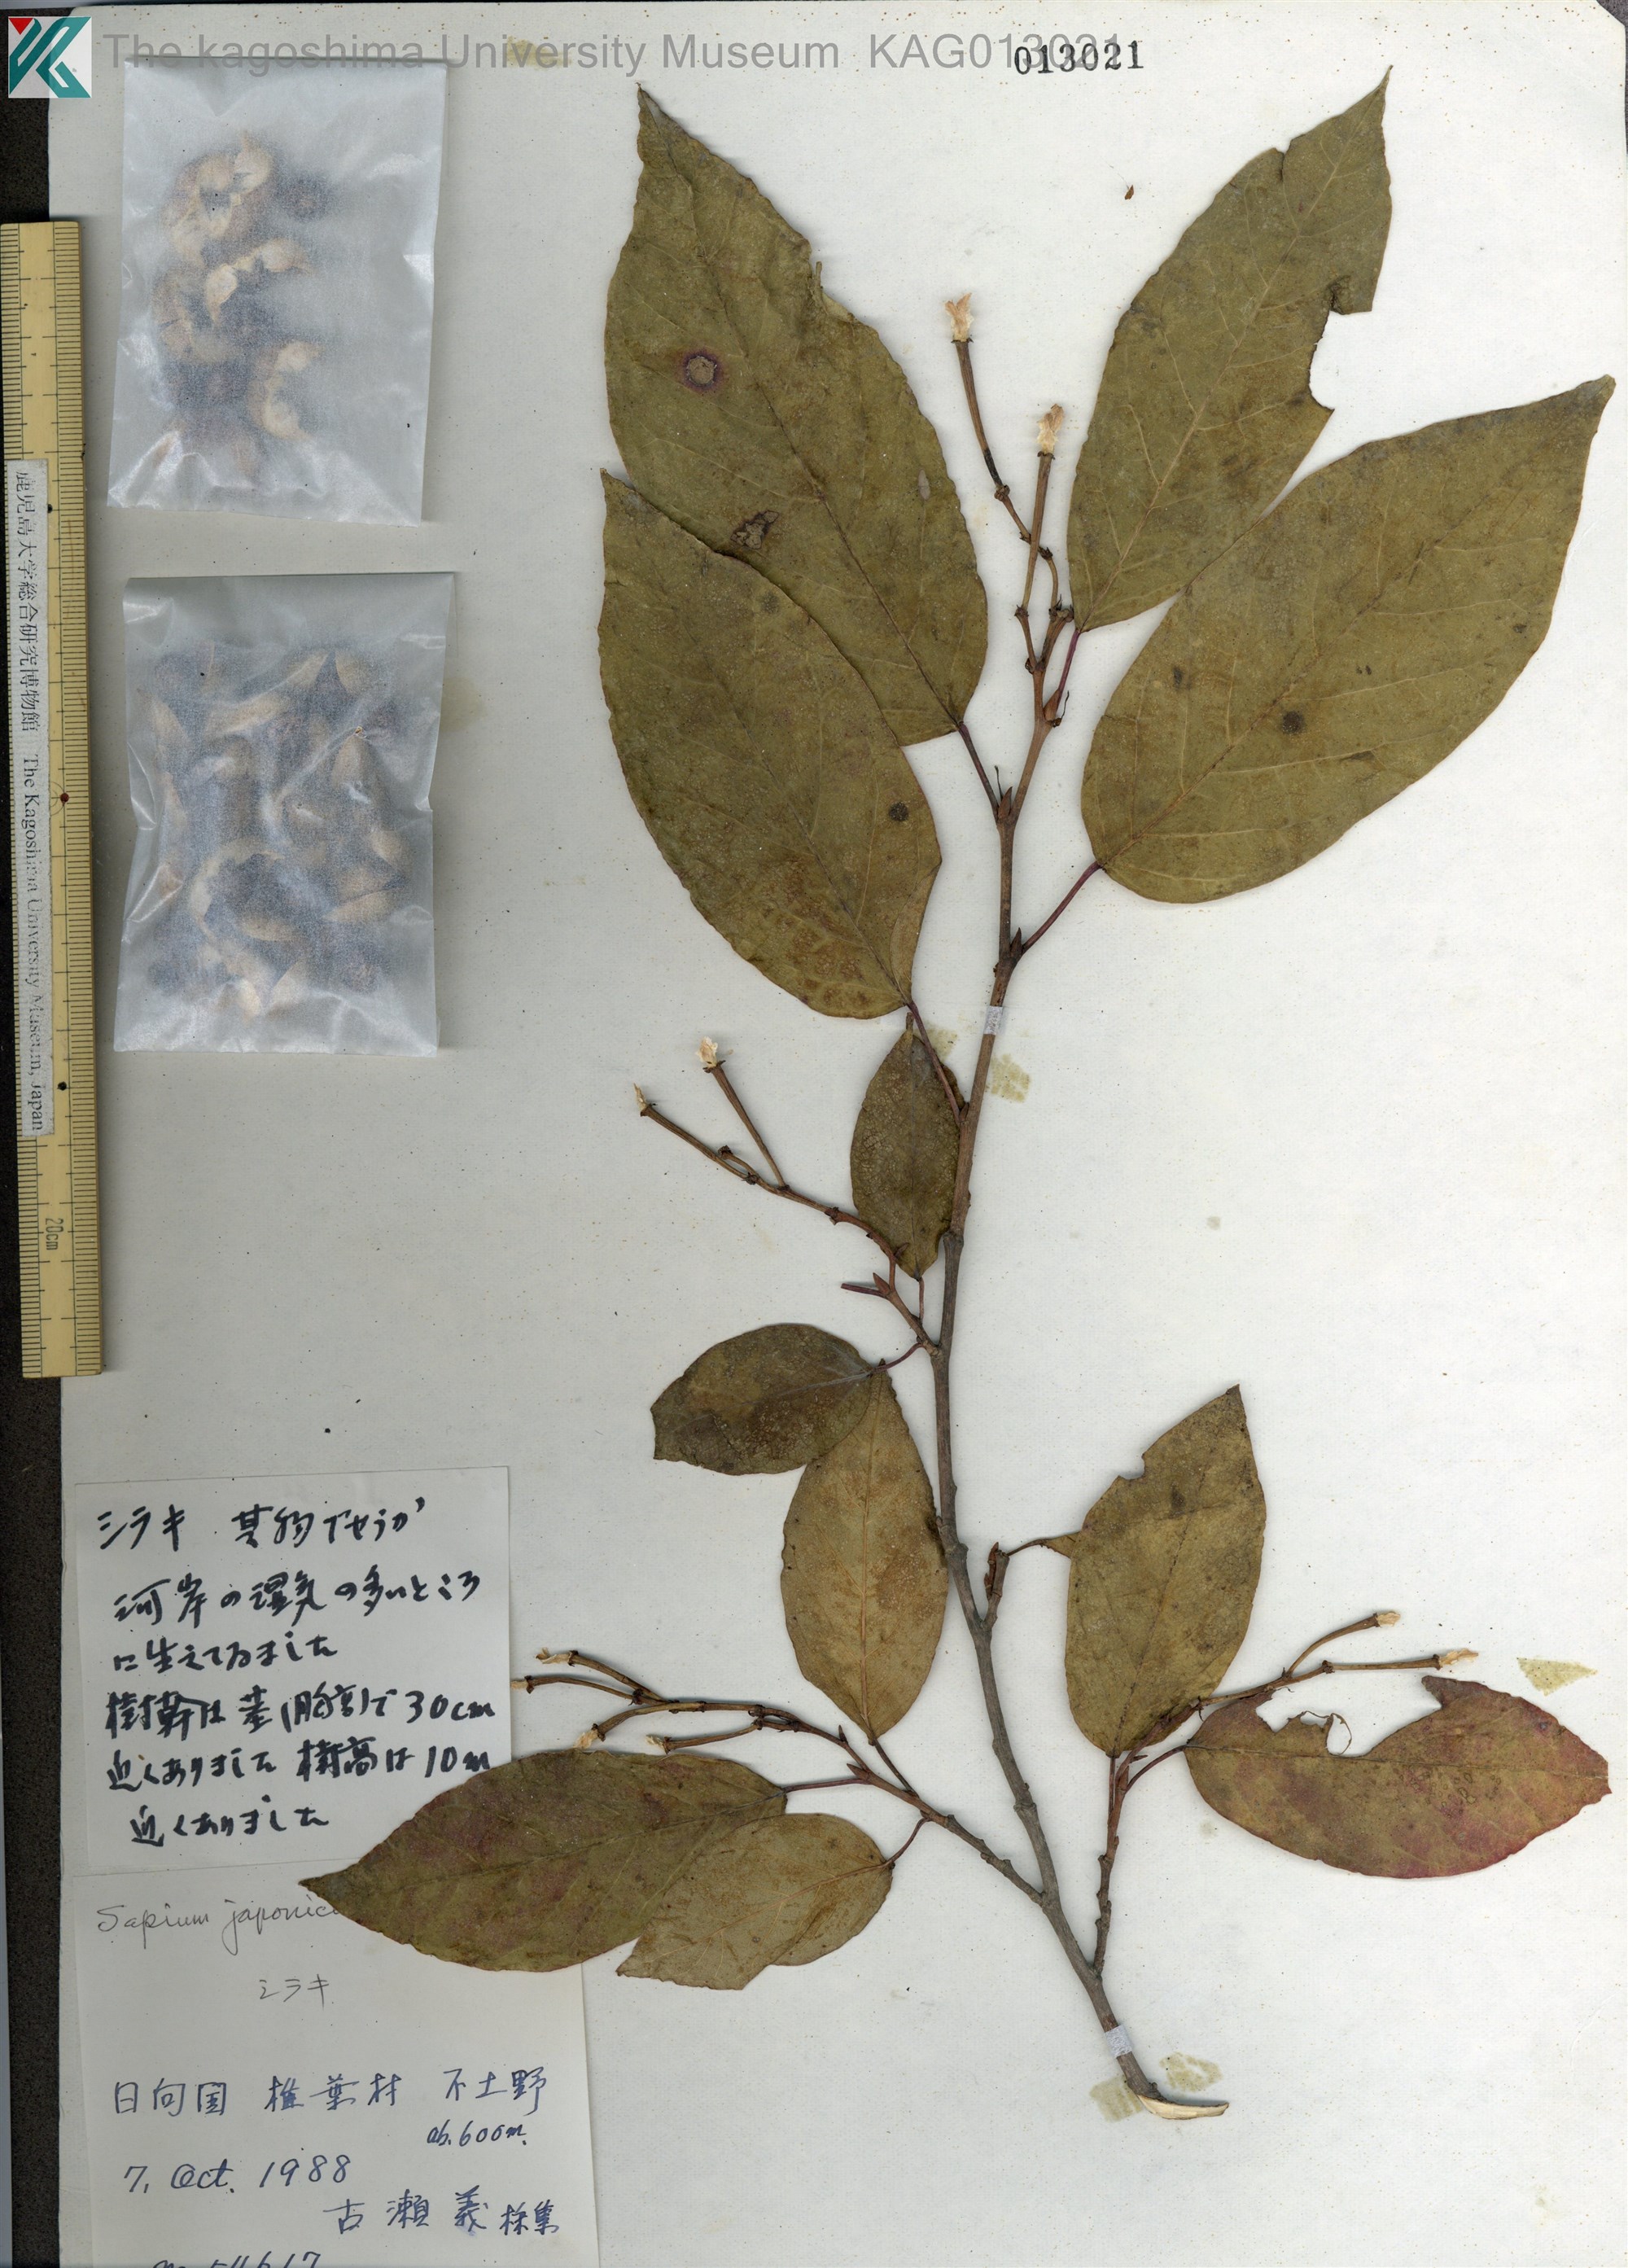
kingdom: Plantae
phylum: Tracheophyta
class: Magnoliopsida
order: Malpighiales
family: Euphorbiaceae
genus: Neoshirakia
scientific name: Neoshirakia japonica
